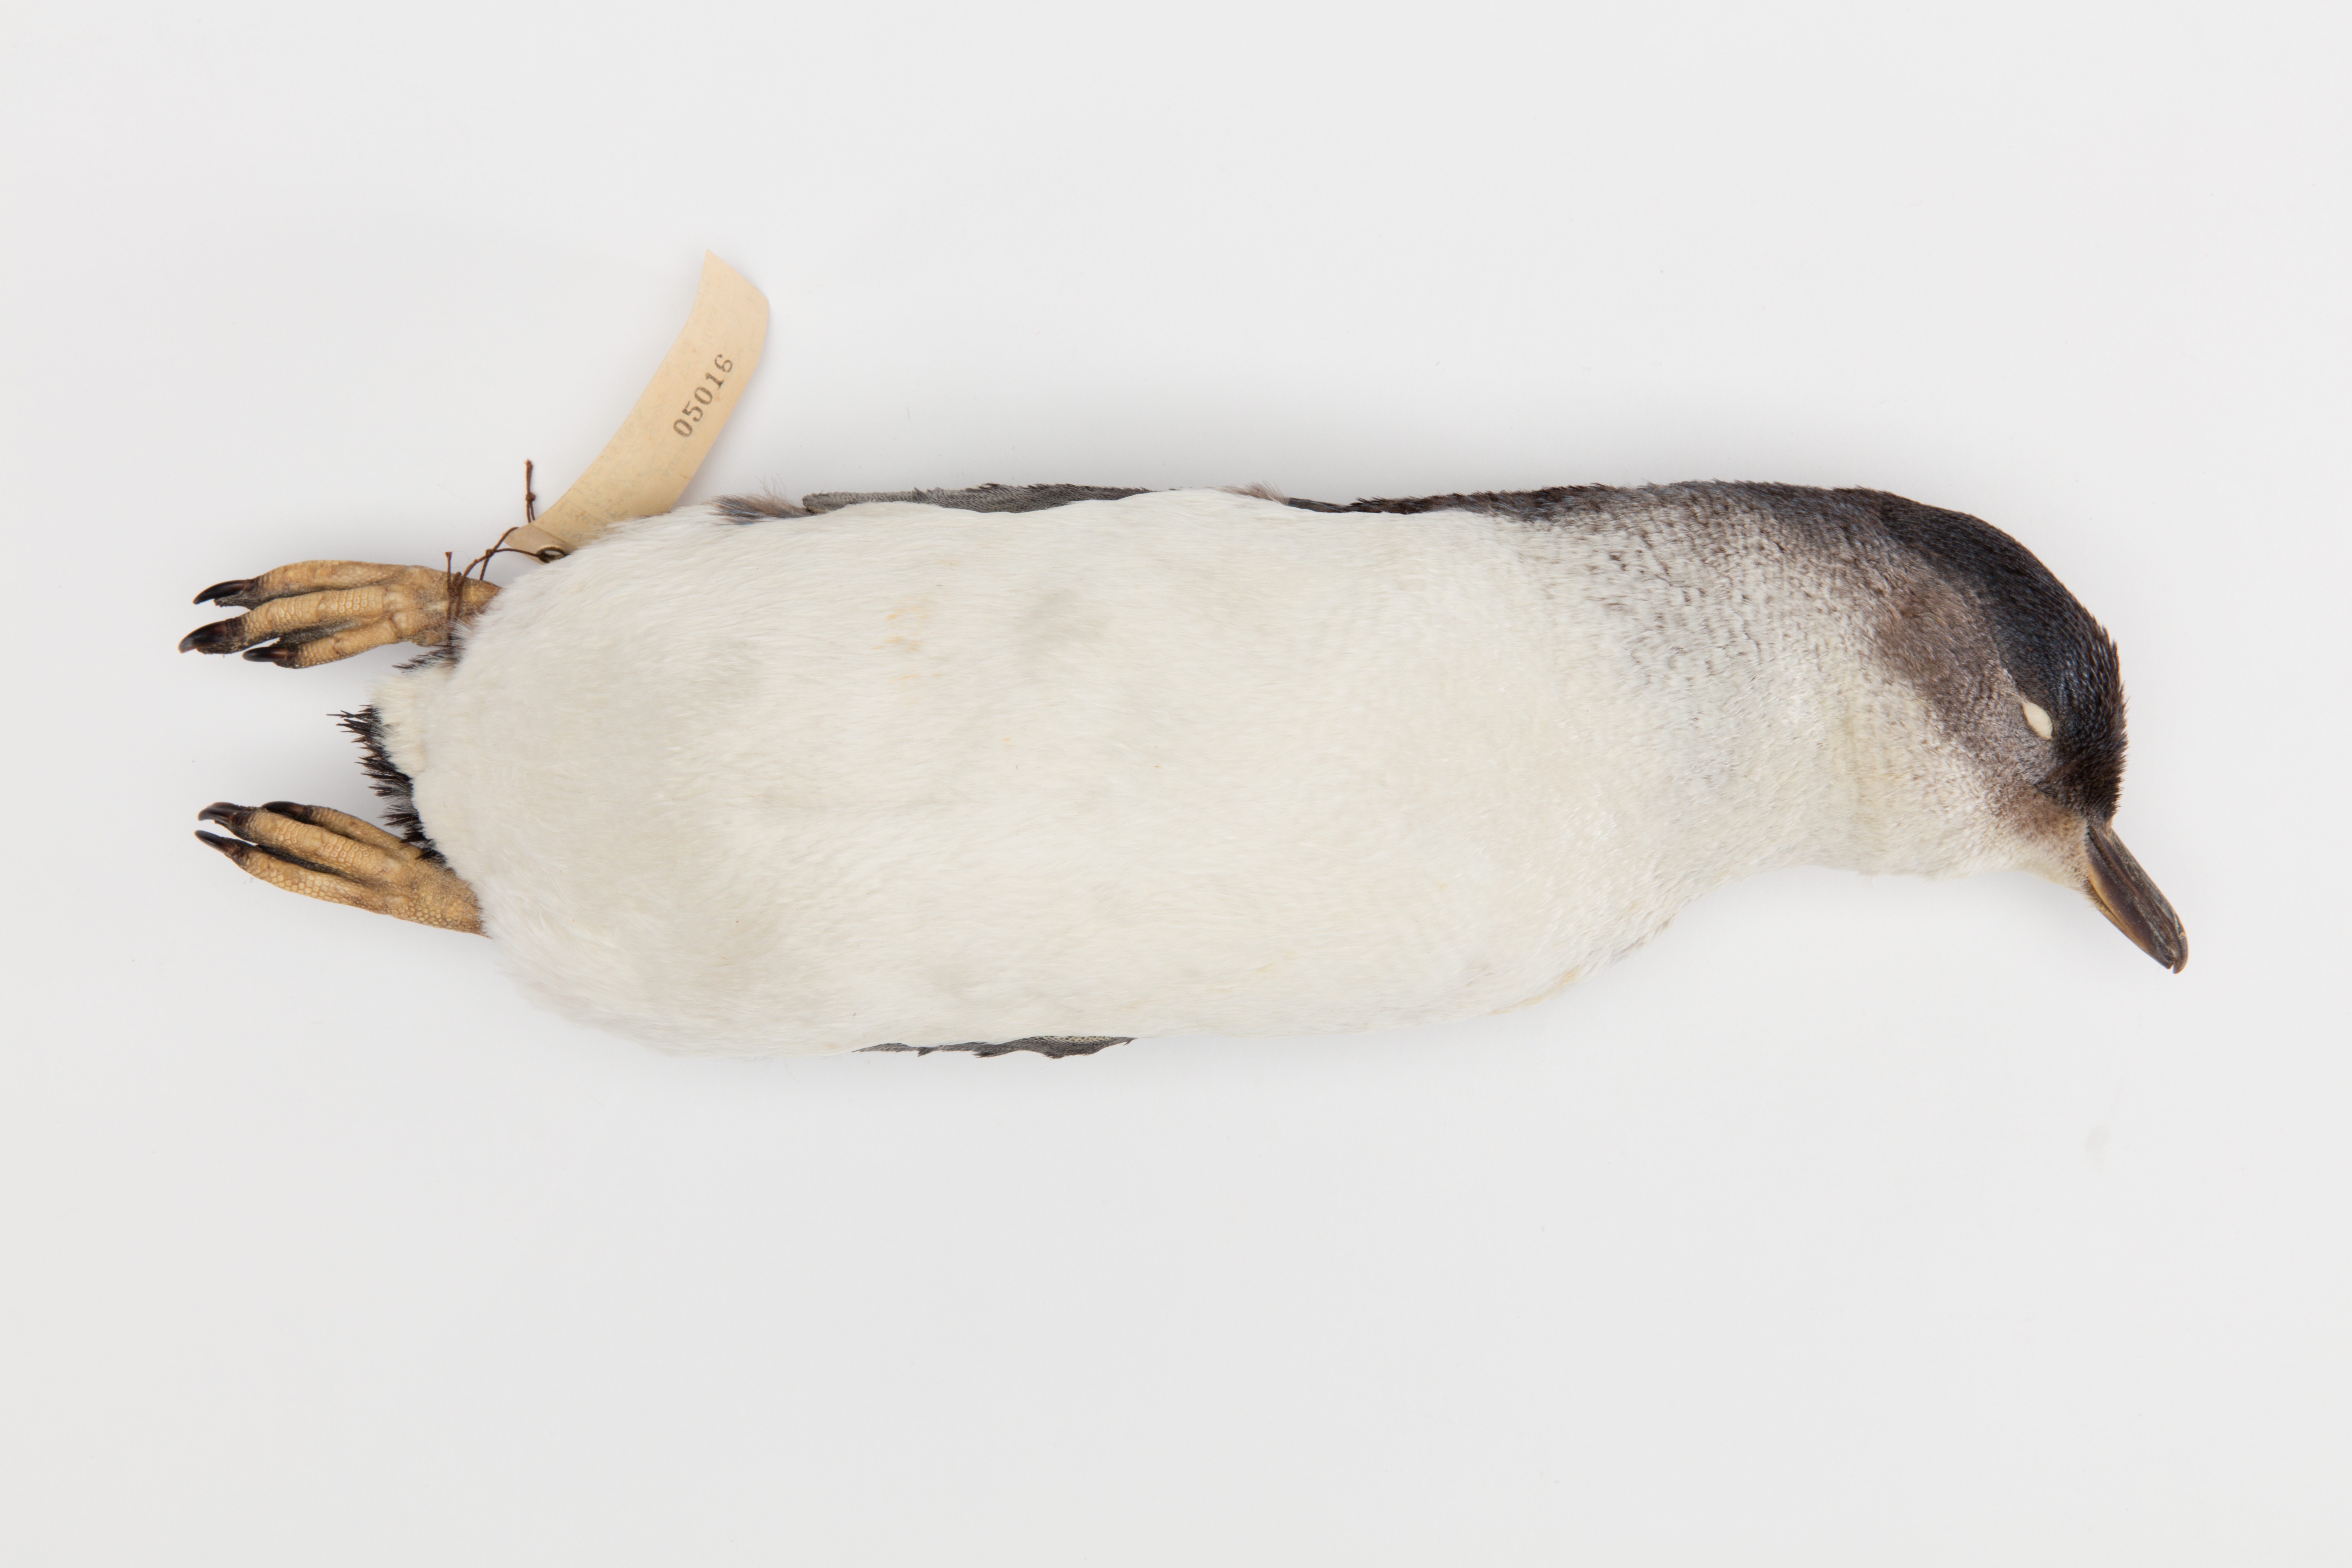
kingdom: Animalia
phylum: Chordata
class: Aves
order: Sphenisciformes
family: Spheniscidae
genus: Eudyptula
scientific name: Eudyptula minor
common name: Little penguin
